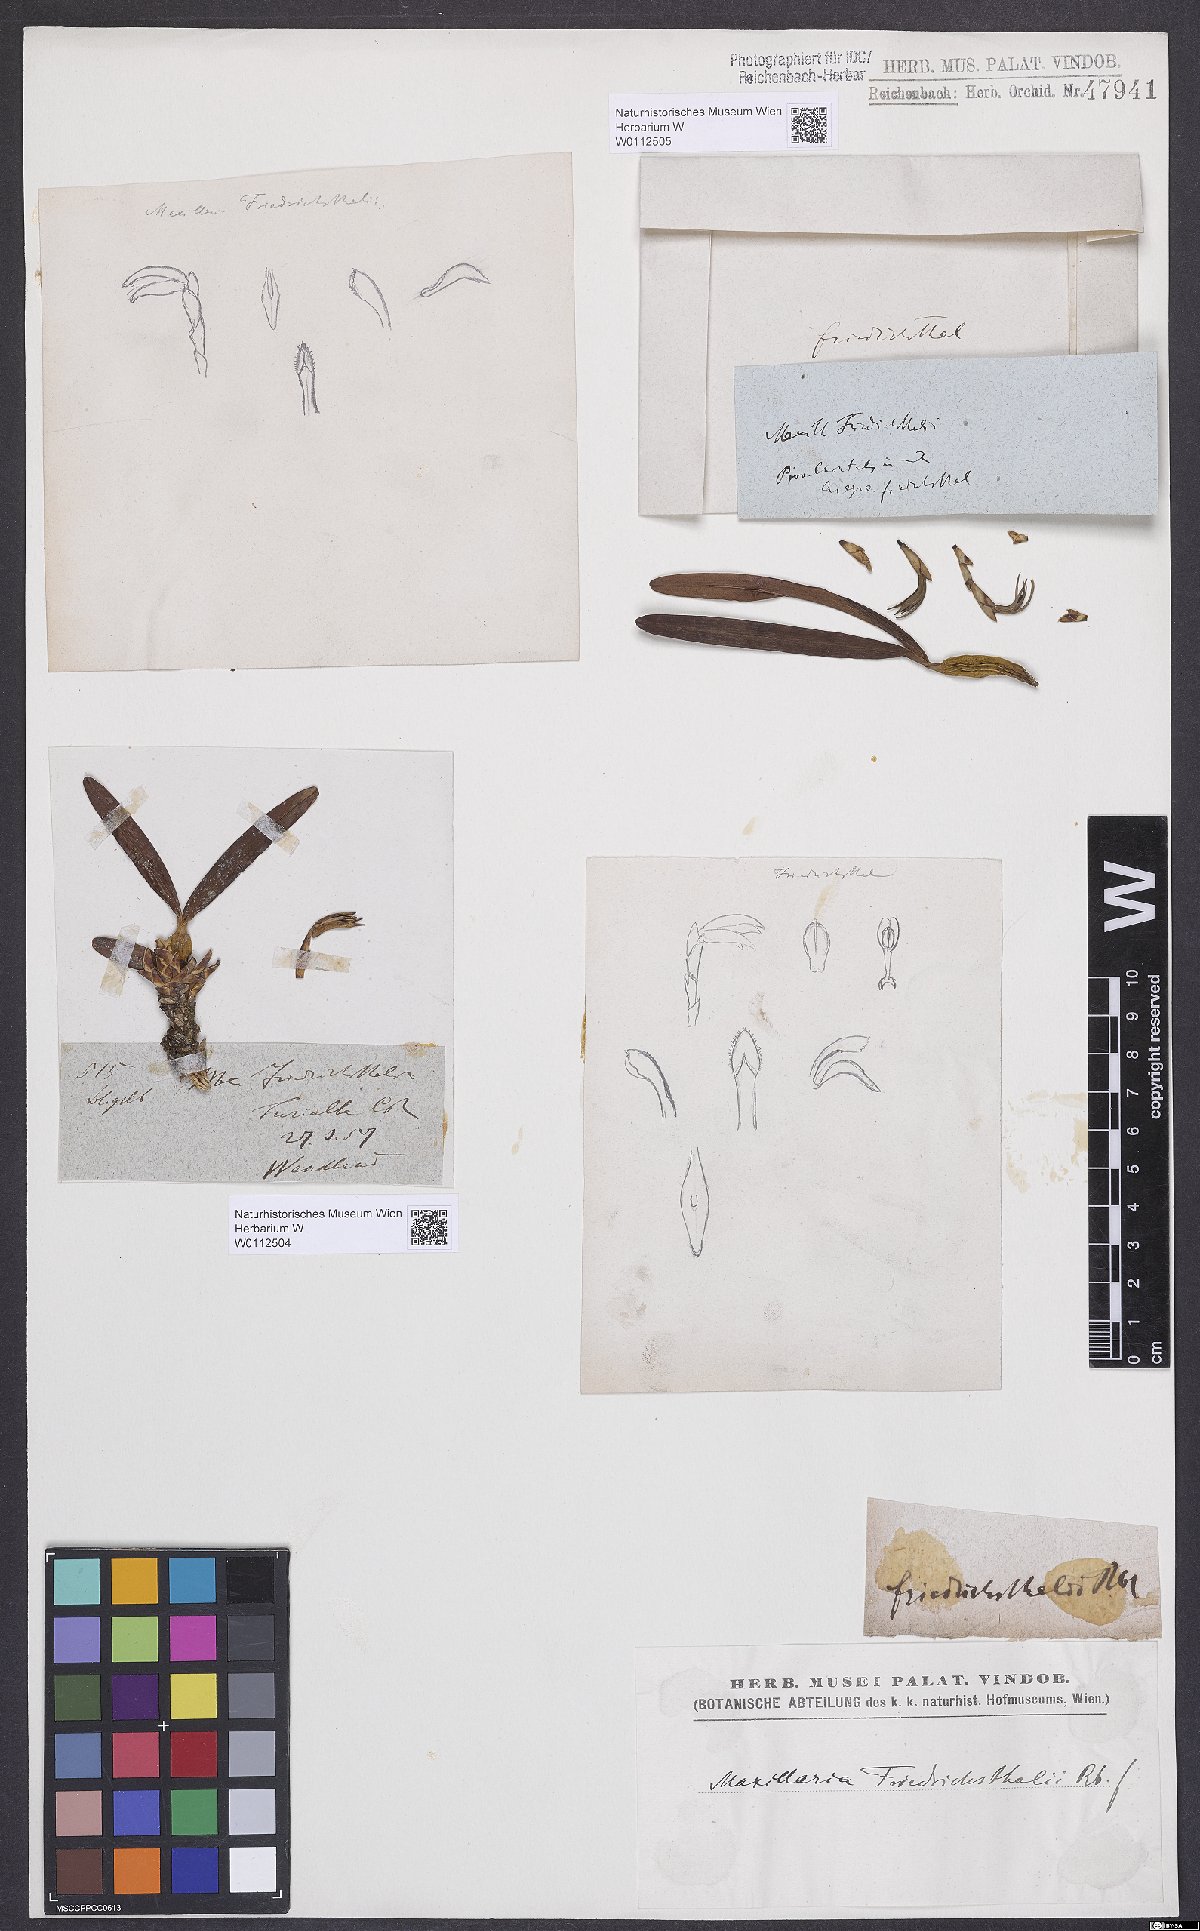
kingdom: Plantae
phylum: Tracheophyta
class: Liliopsida
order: Asparagales
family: Orchidaceae
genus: Maxillaria
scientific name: Maxillaria friedrichsthalii
